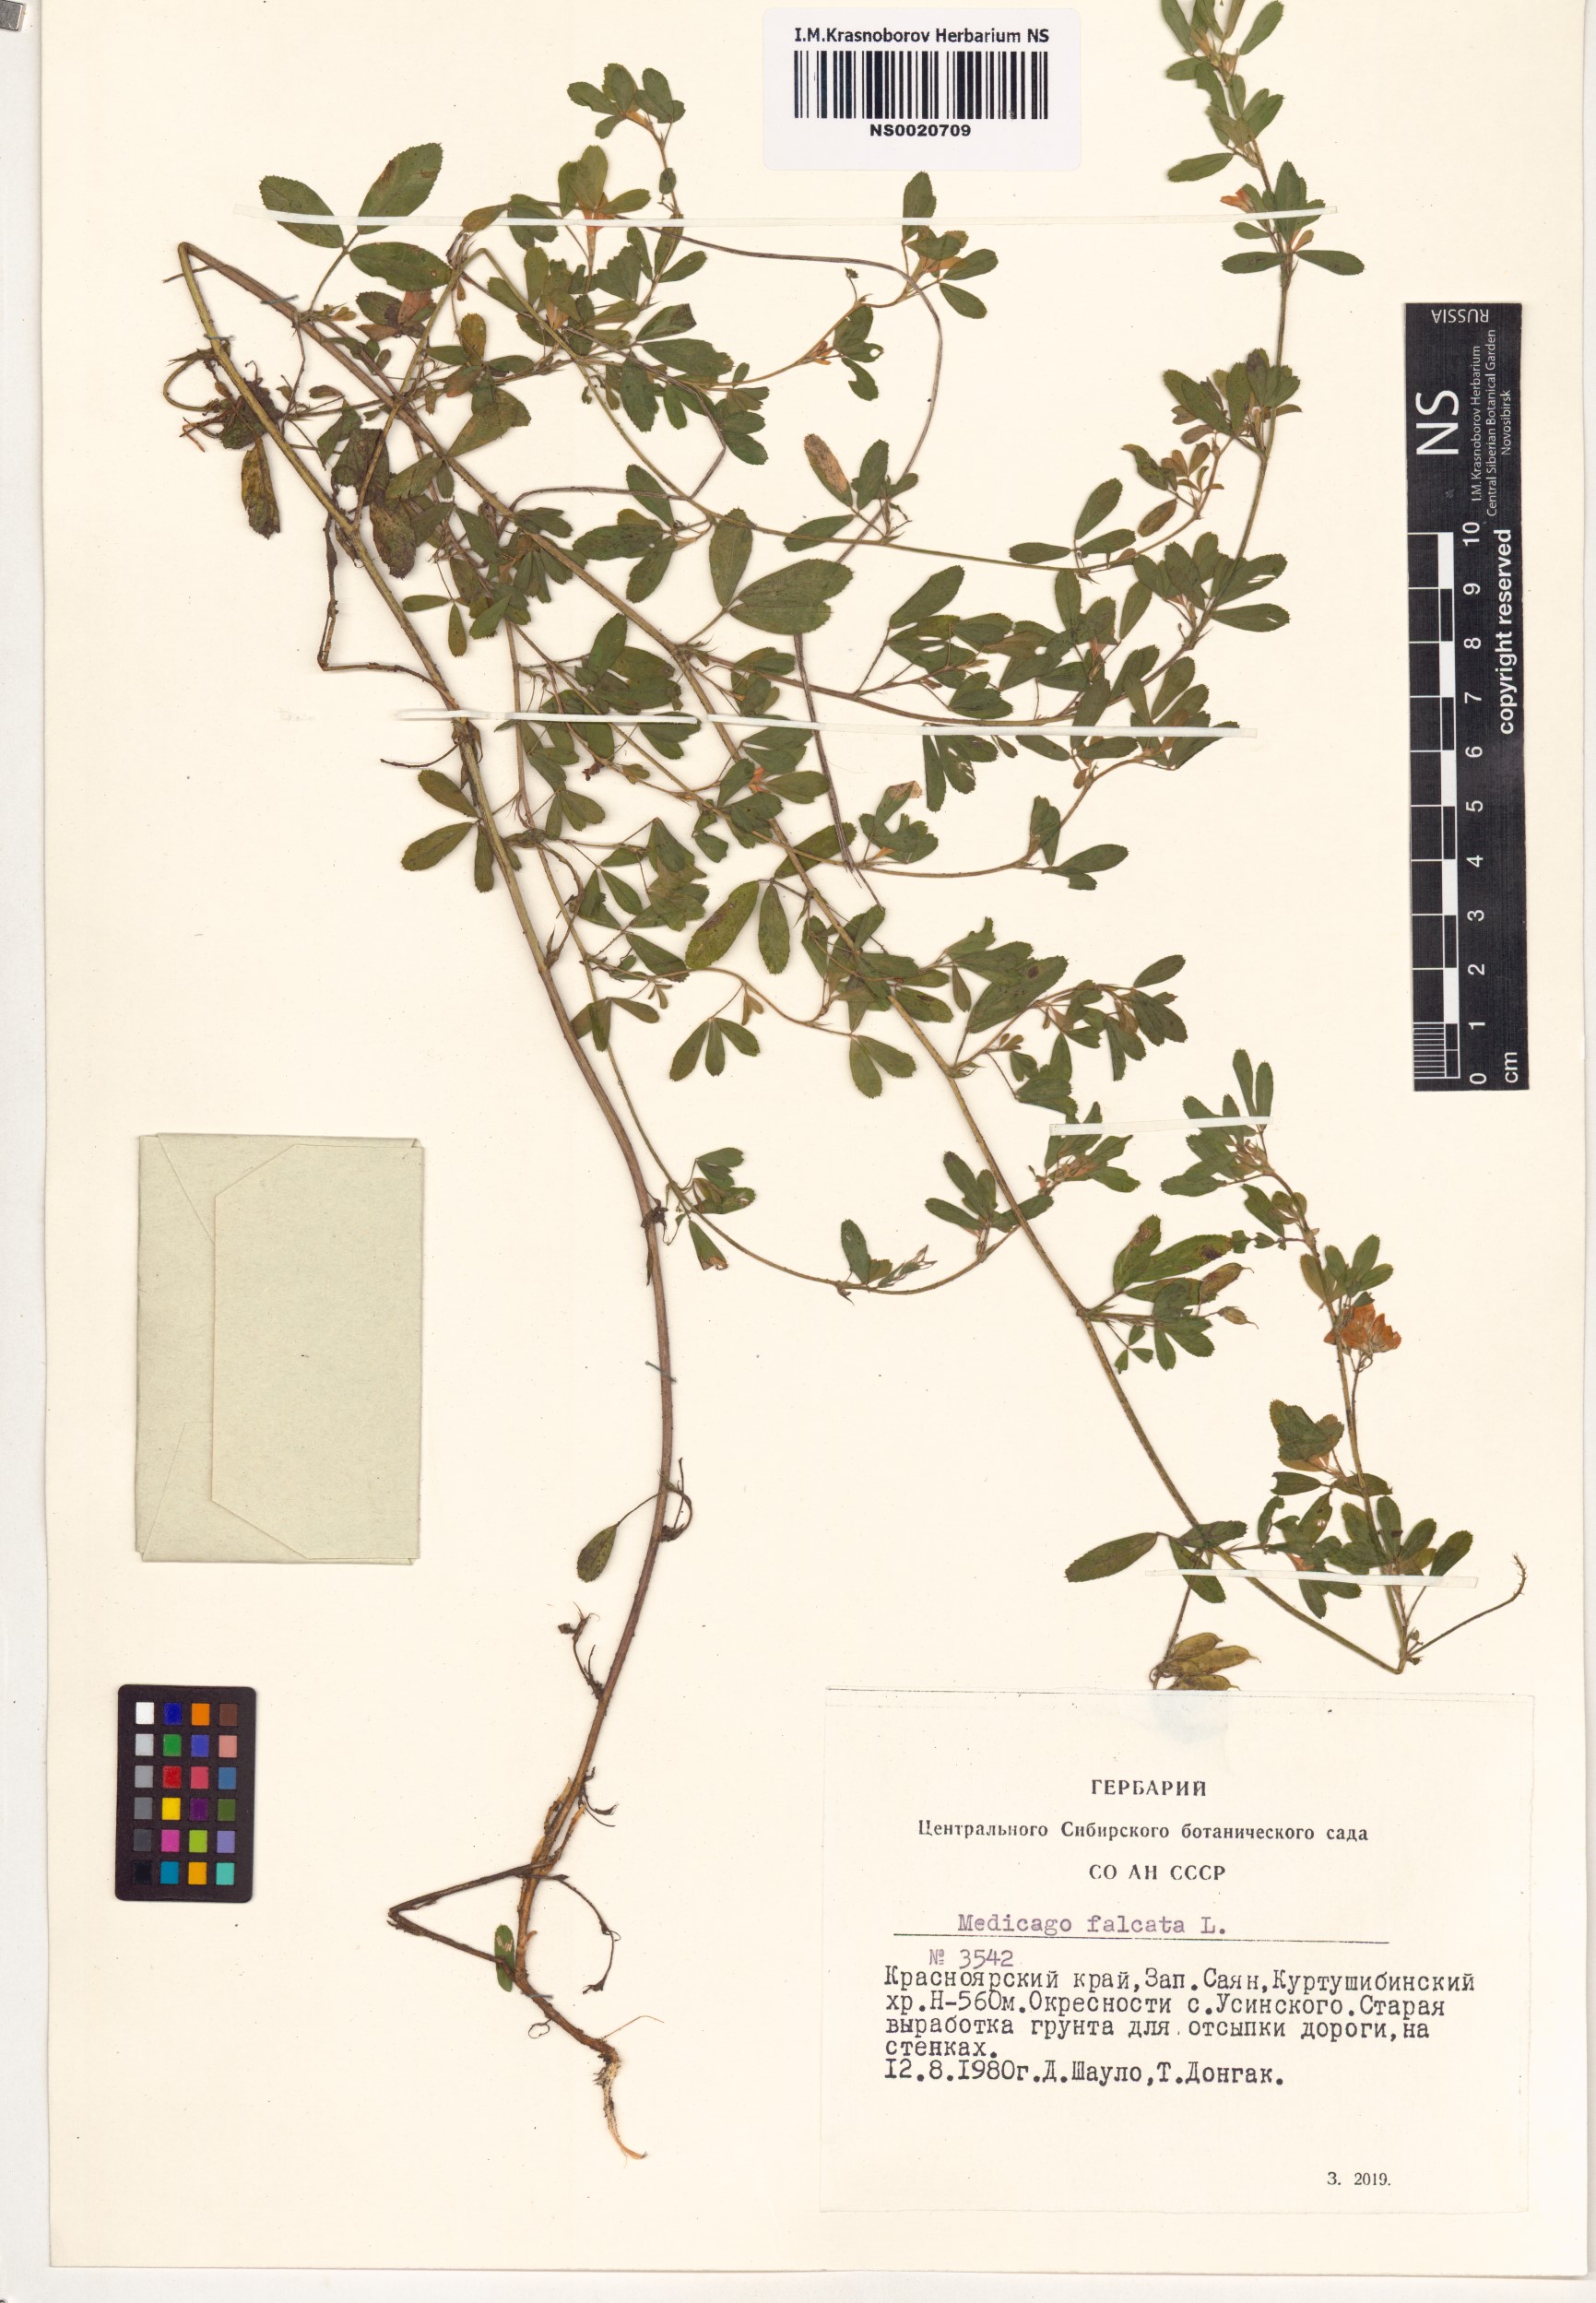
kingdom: Plantae
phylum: Tracheophyta
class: Magnoliopsida
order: Fabales
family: Fabaceae
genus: Medicago
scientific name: Medicago falcata
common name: Sickle medick
